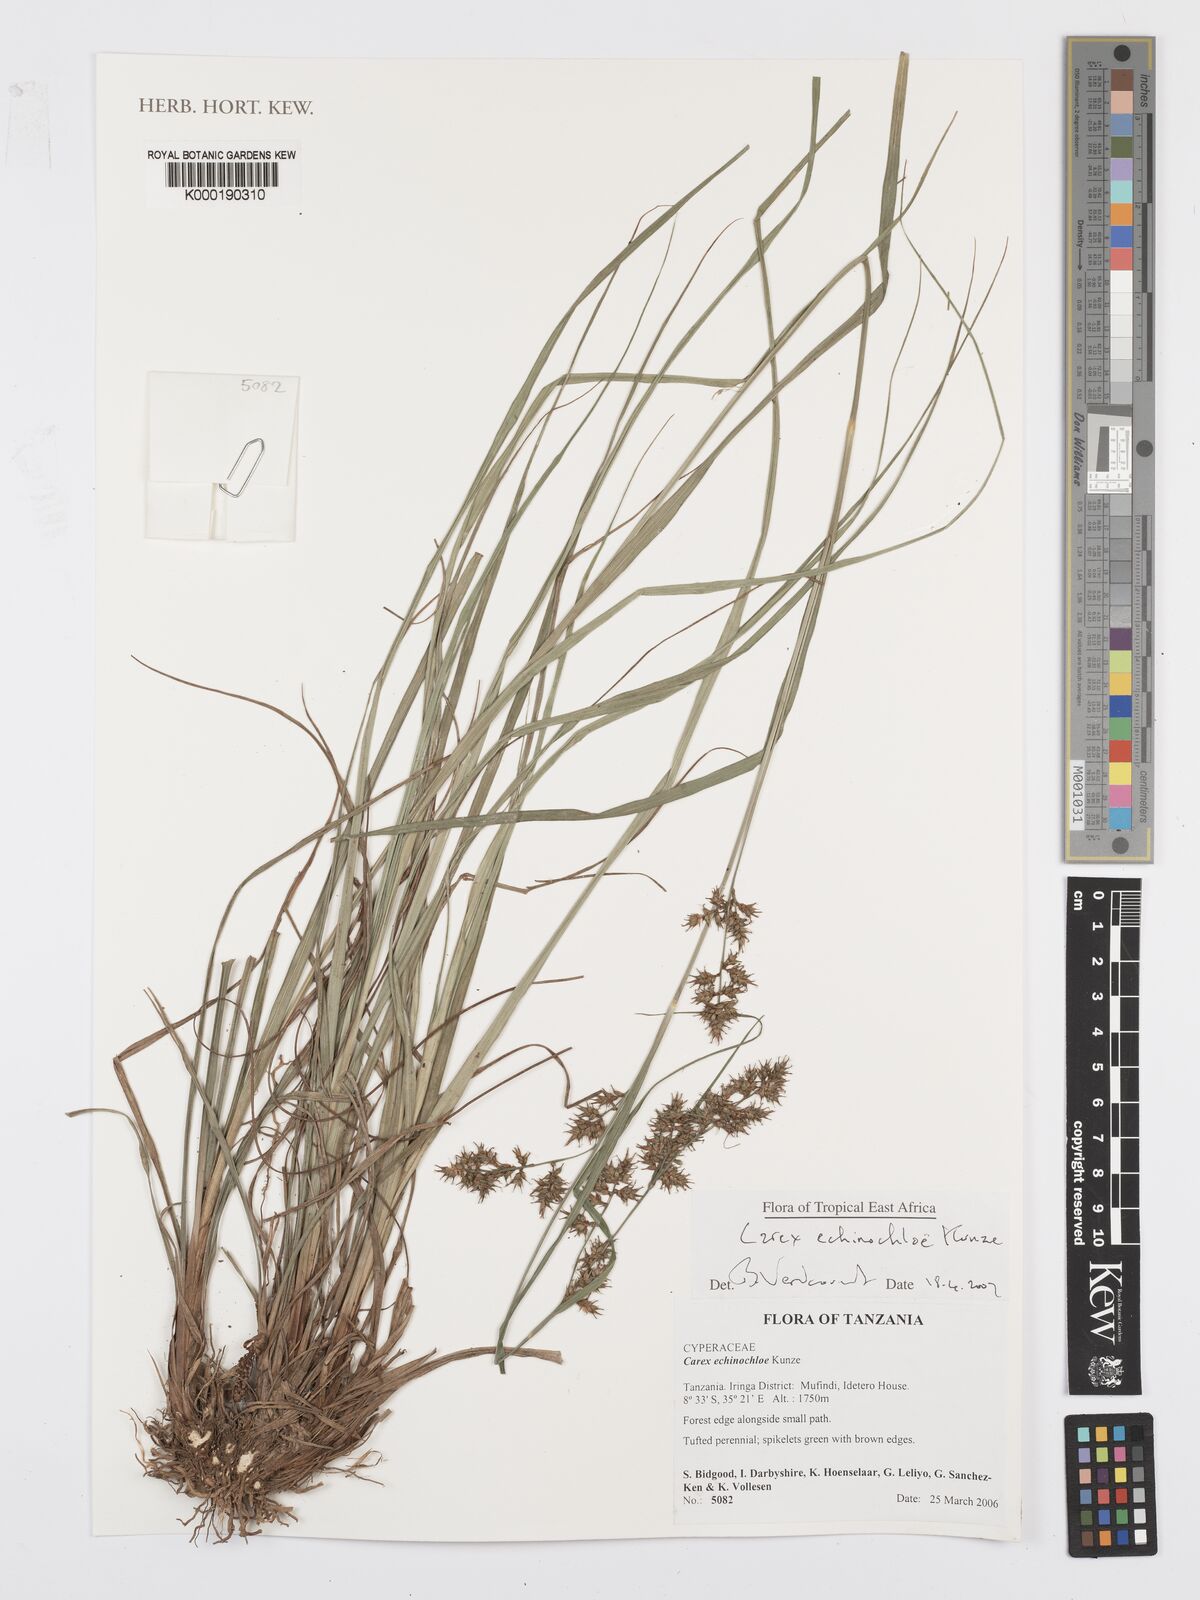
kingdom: Plantae
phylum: Tracheophyta
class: Liliopsida
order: Poales
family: Cyperaceae
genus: Carex
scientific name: Carex echinochloe
